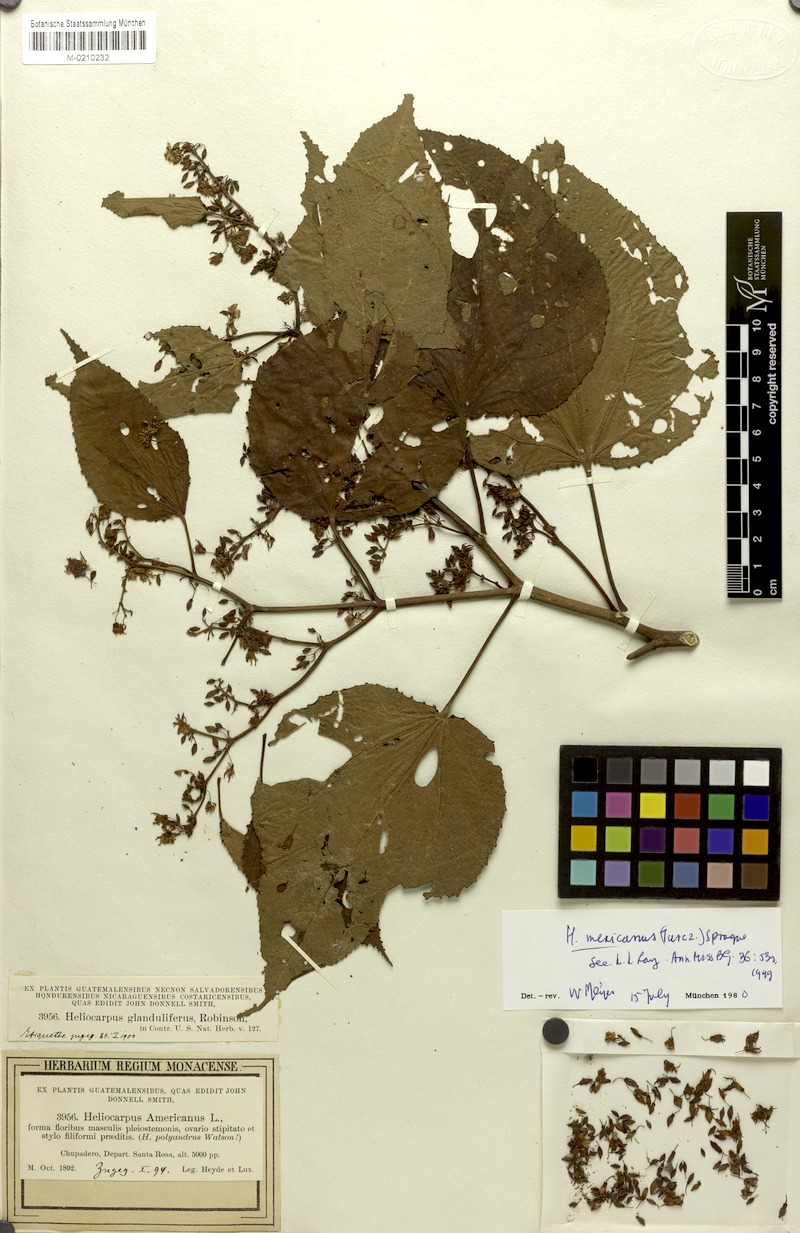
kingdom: Plantae
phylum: Tracheophyta
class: Magnoliopsida
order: Malvales
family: Malvaceae
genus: Trichospermum
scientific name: Trichospermum mexicanum
